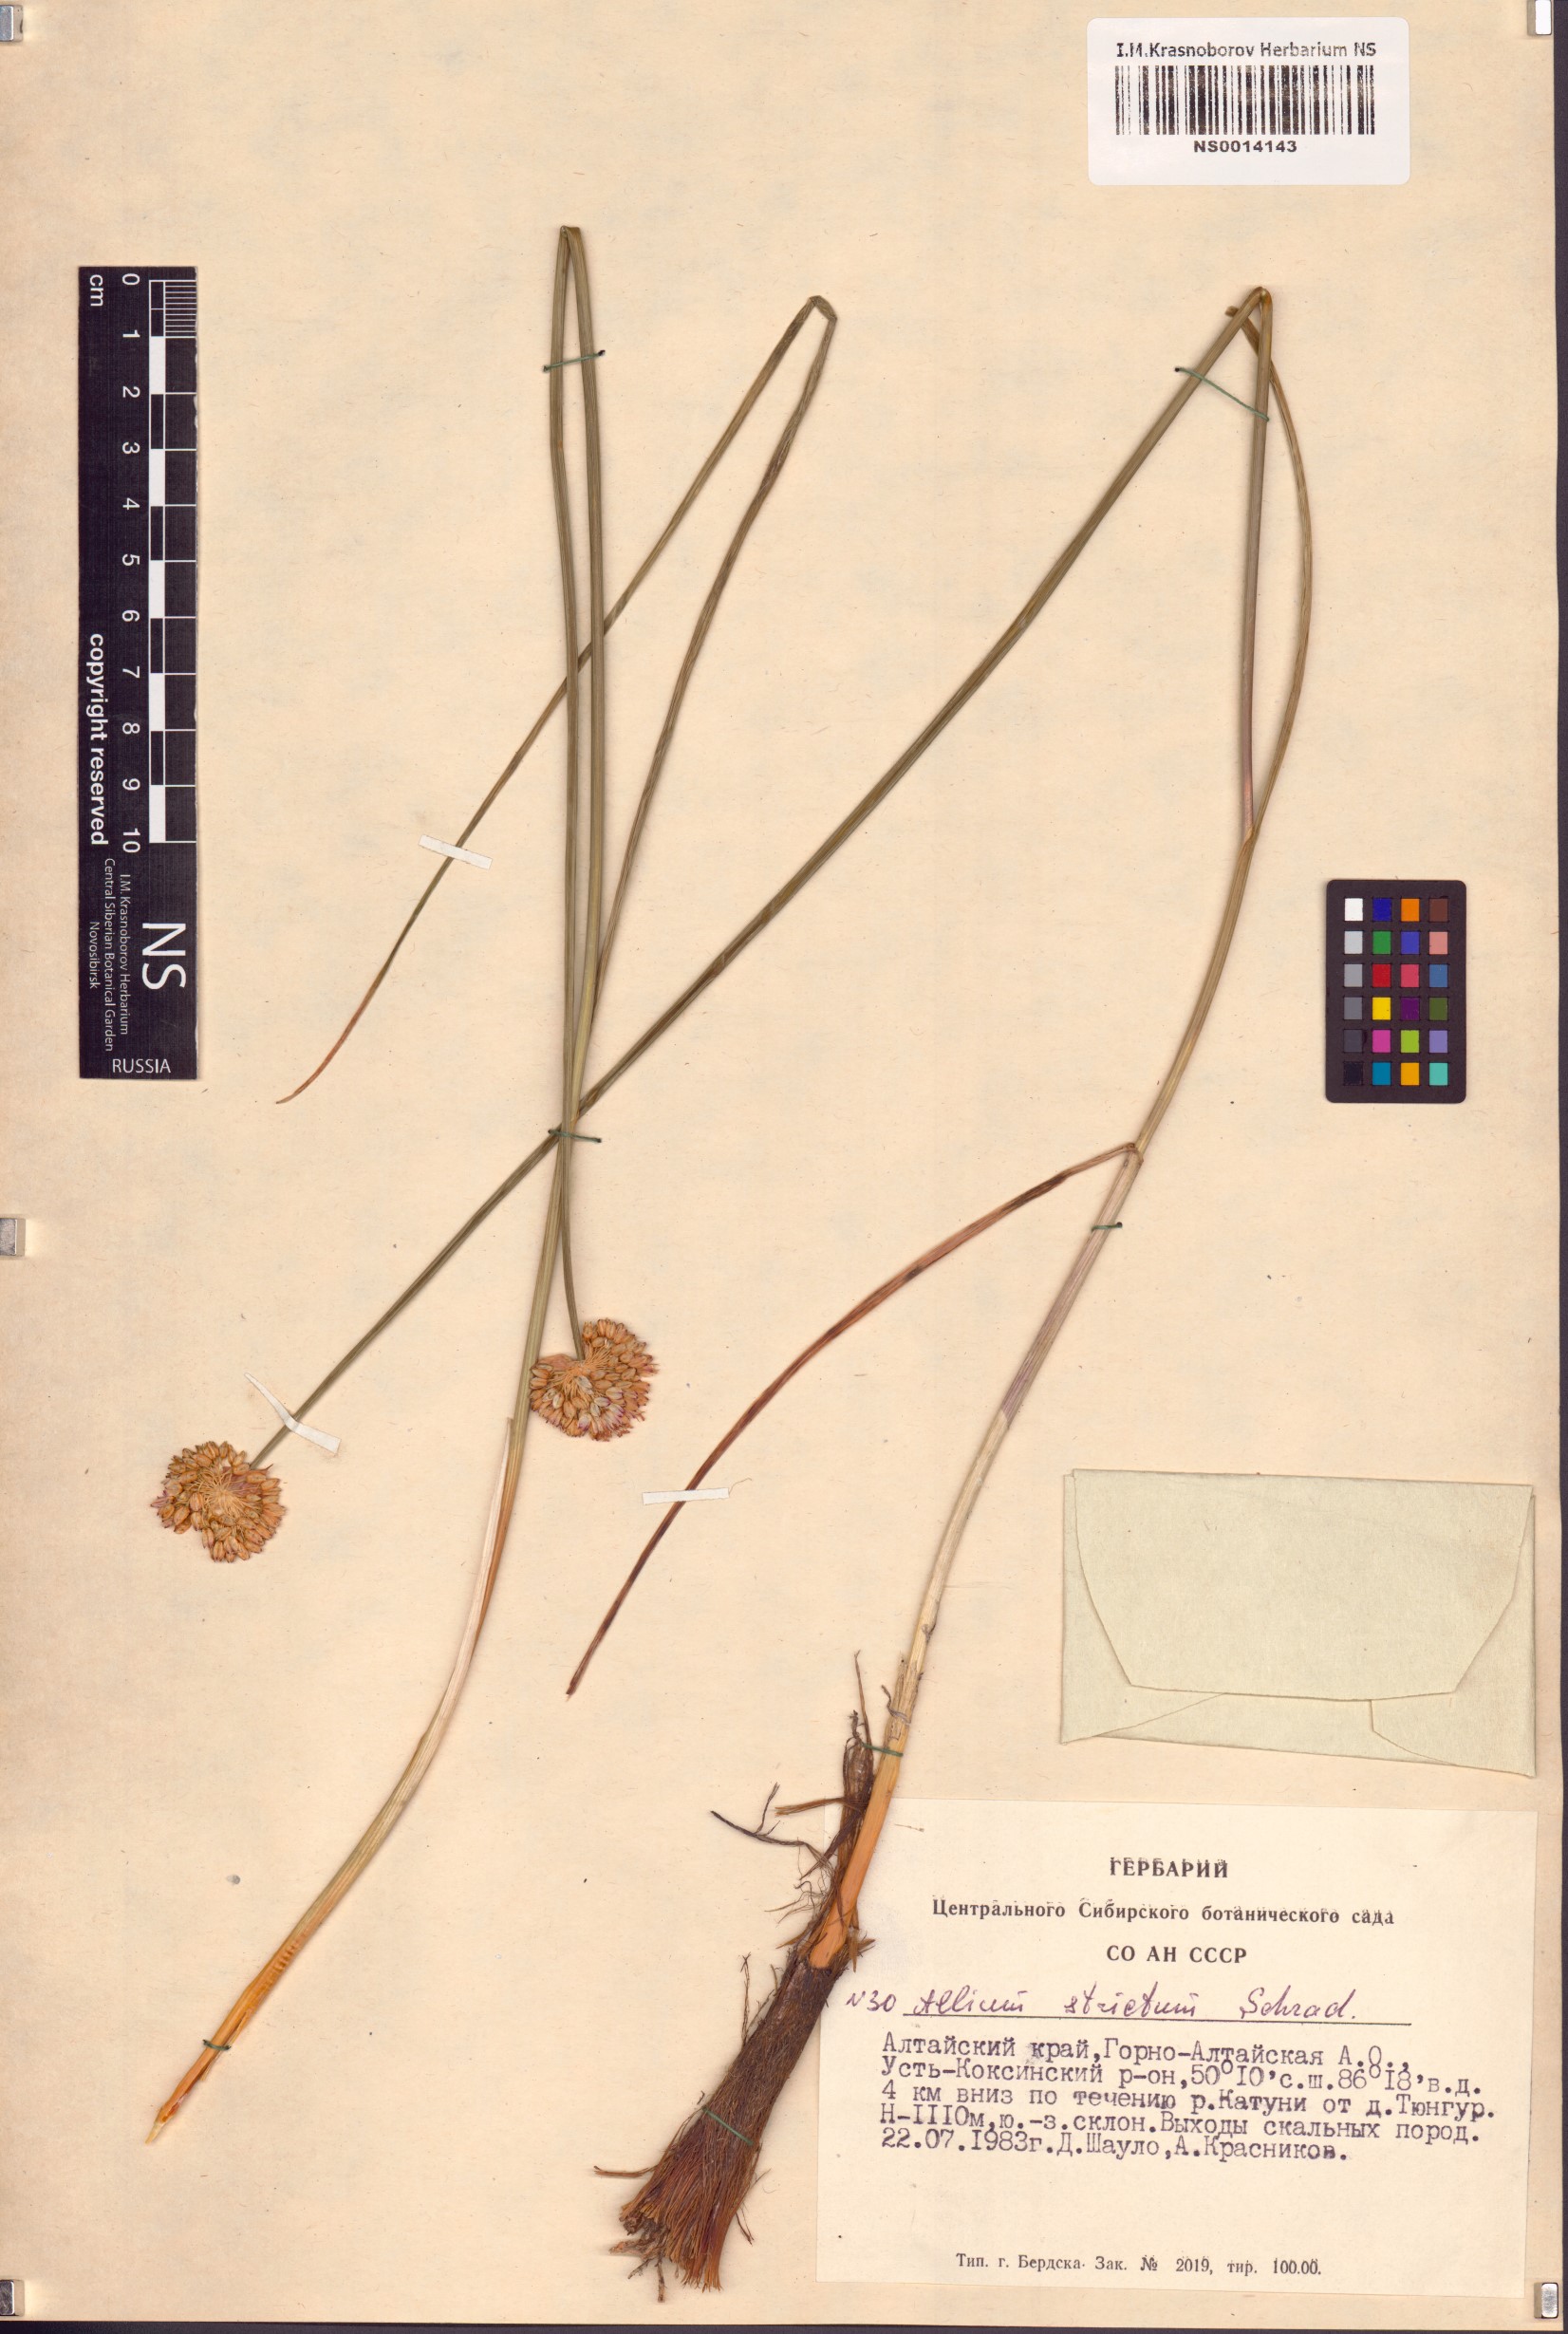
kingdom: Plantae
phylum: Tracheophyta
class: Liliopsida
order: Asparagales
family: Amaryllidaceae
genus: Allium
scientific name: Allium strictum
